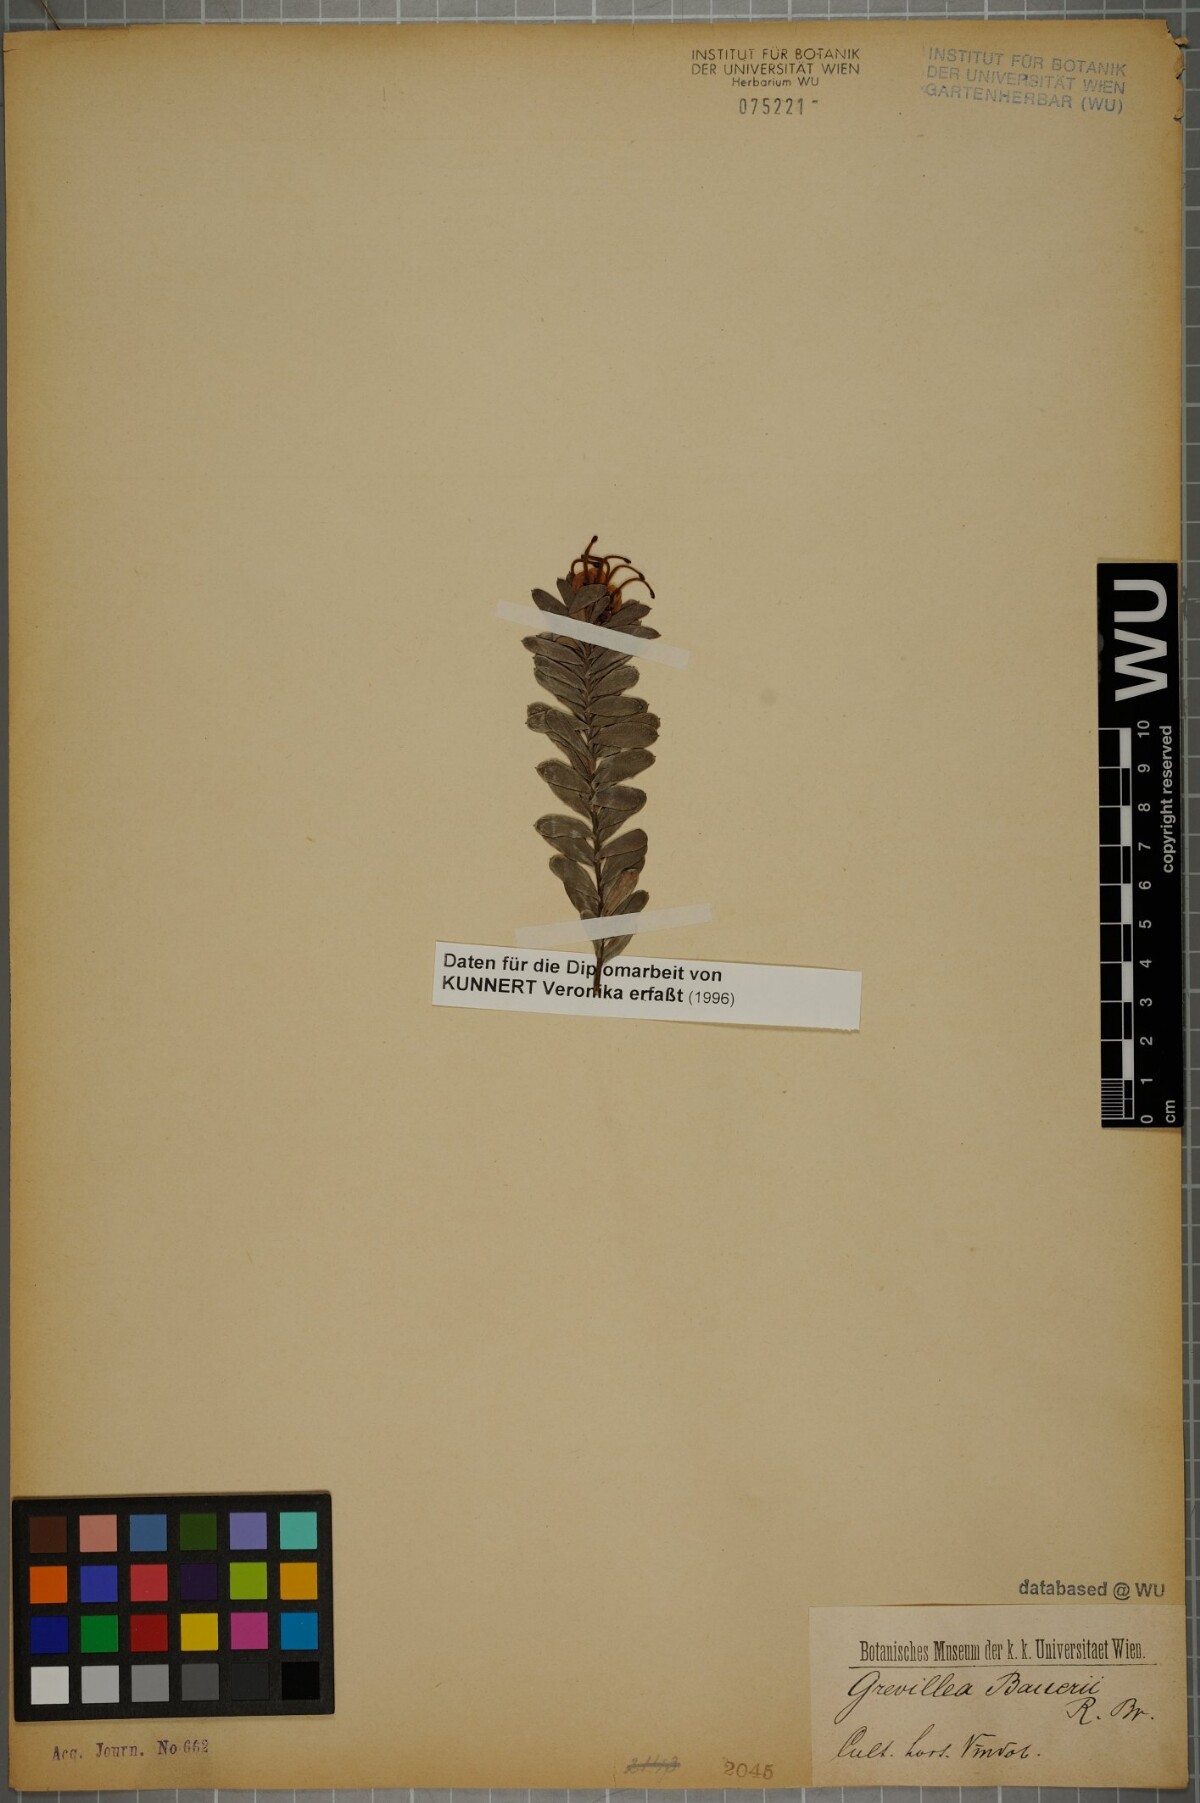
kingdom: Plantae
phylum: Tracheophyta
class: Magnoliopsida
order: Proteales
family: Proteaceae
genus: Grevillea
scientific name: Grevillea baueri
